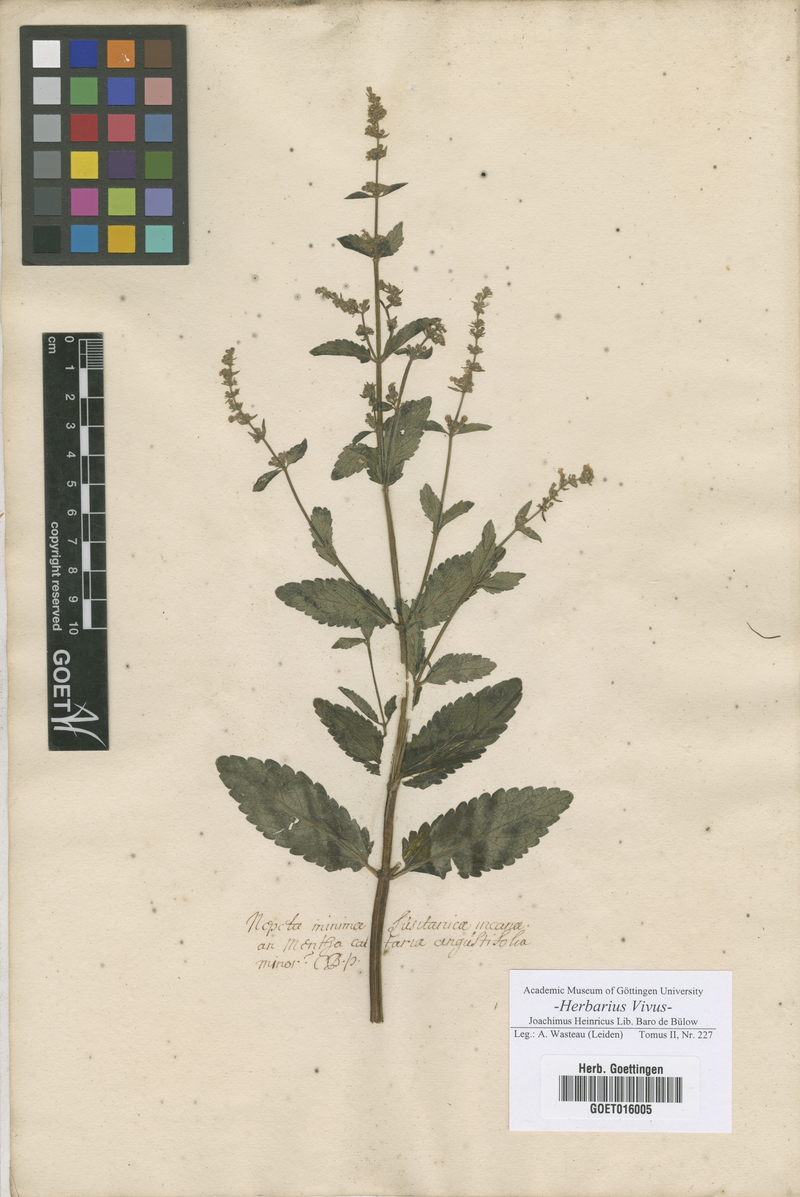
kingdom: Plantae
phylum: Tracheophyta
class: Magnoliopsida
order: Lamiales
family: Lamiaceae
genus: Nepeta
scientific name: Nepeta
